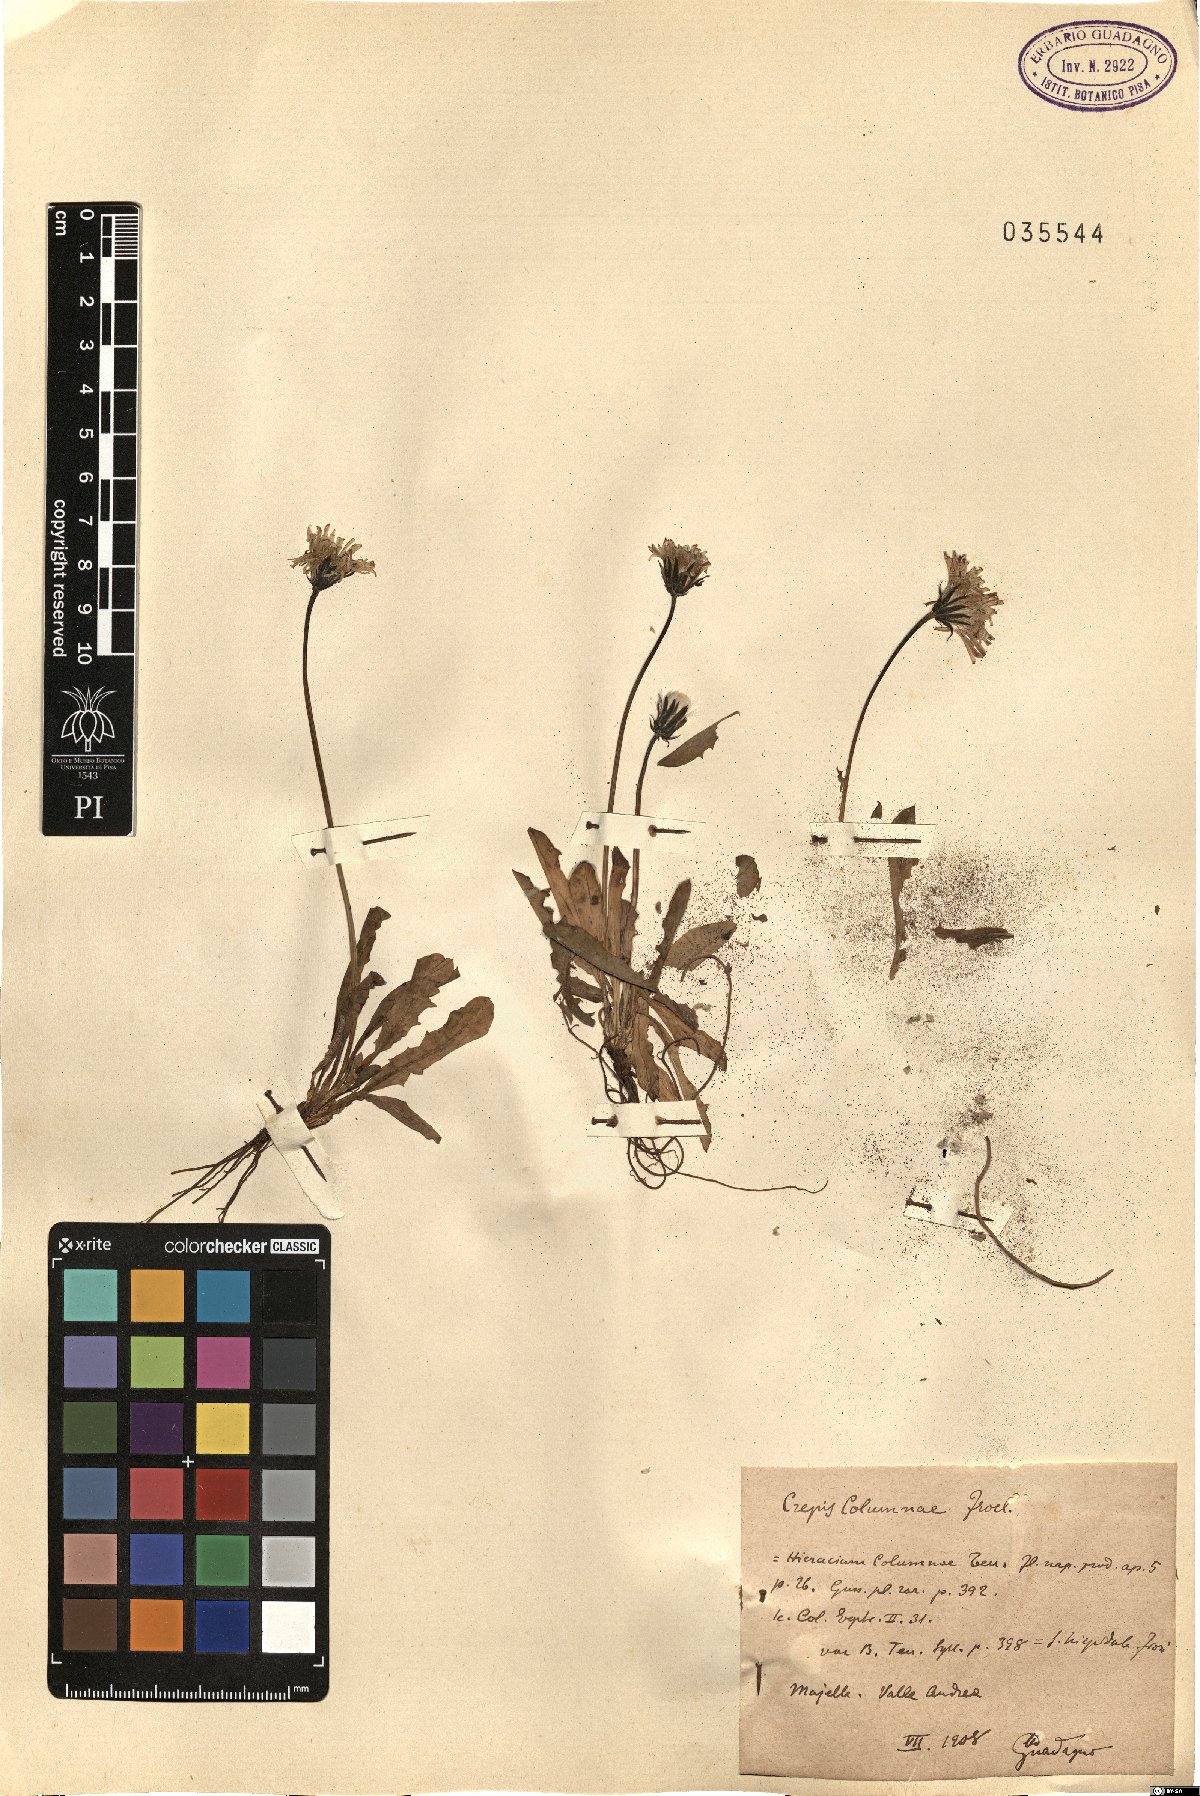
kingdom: Plantae
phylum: Tracheophyta
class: Magnoliopsida
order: Asterales
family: Asteraceae
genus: Crepis
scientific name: Crepis aurea
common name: Golden hawk's-beard
